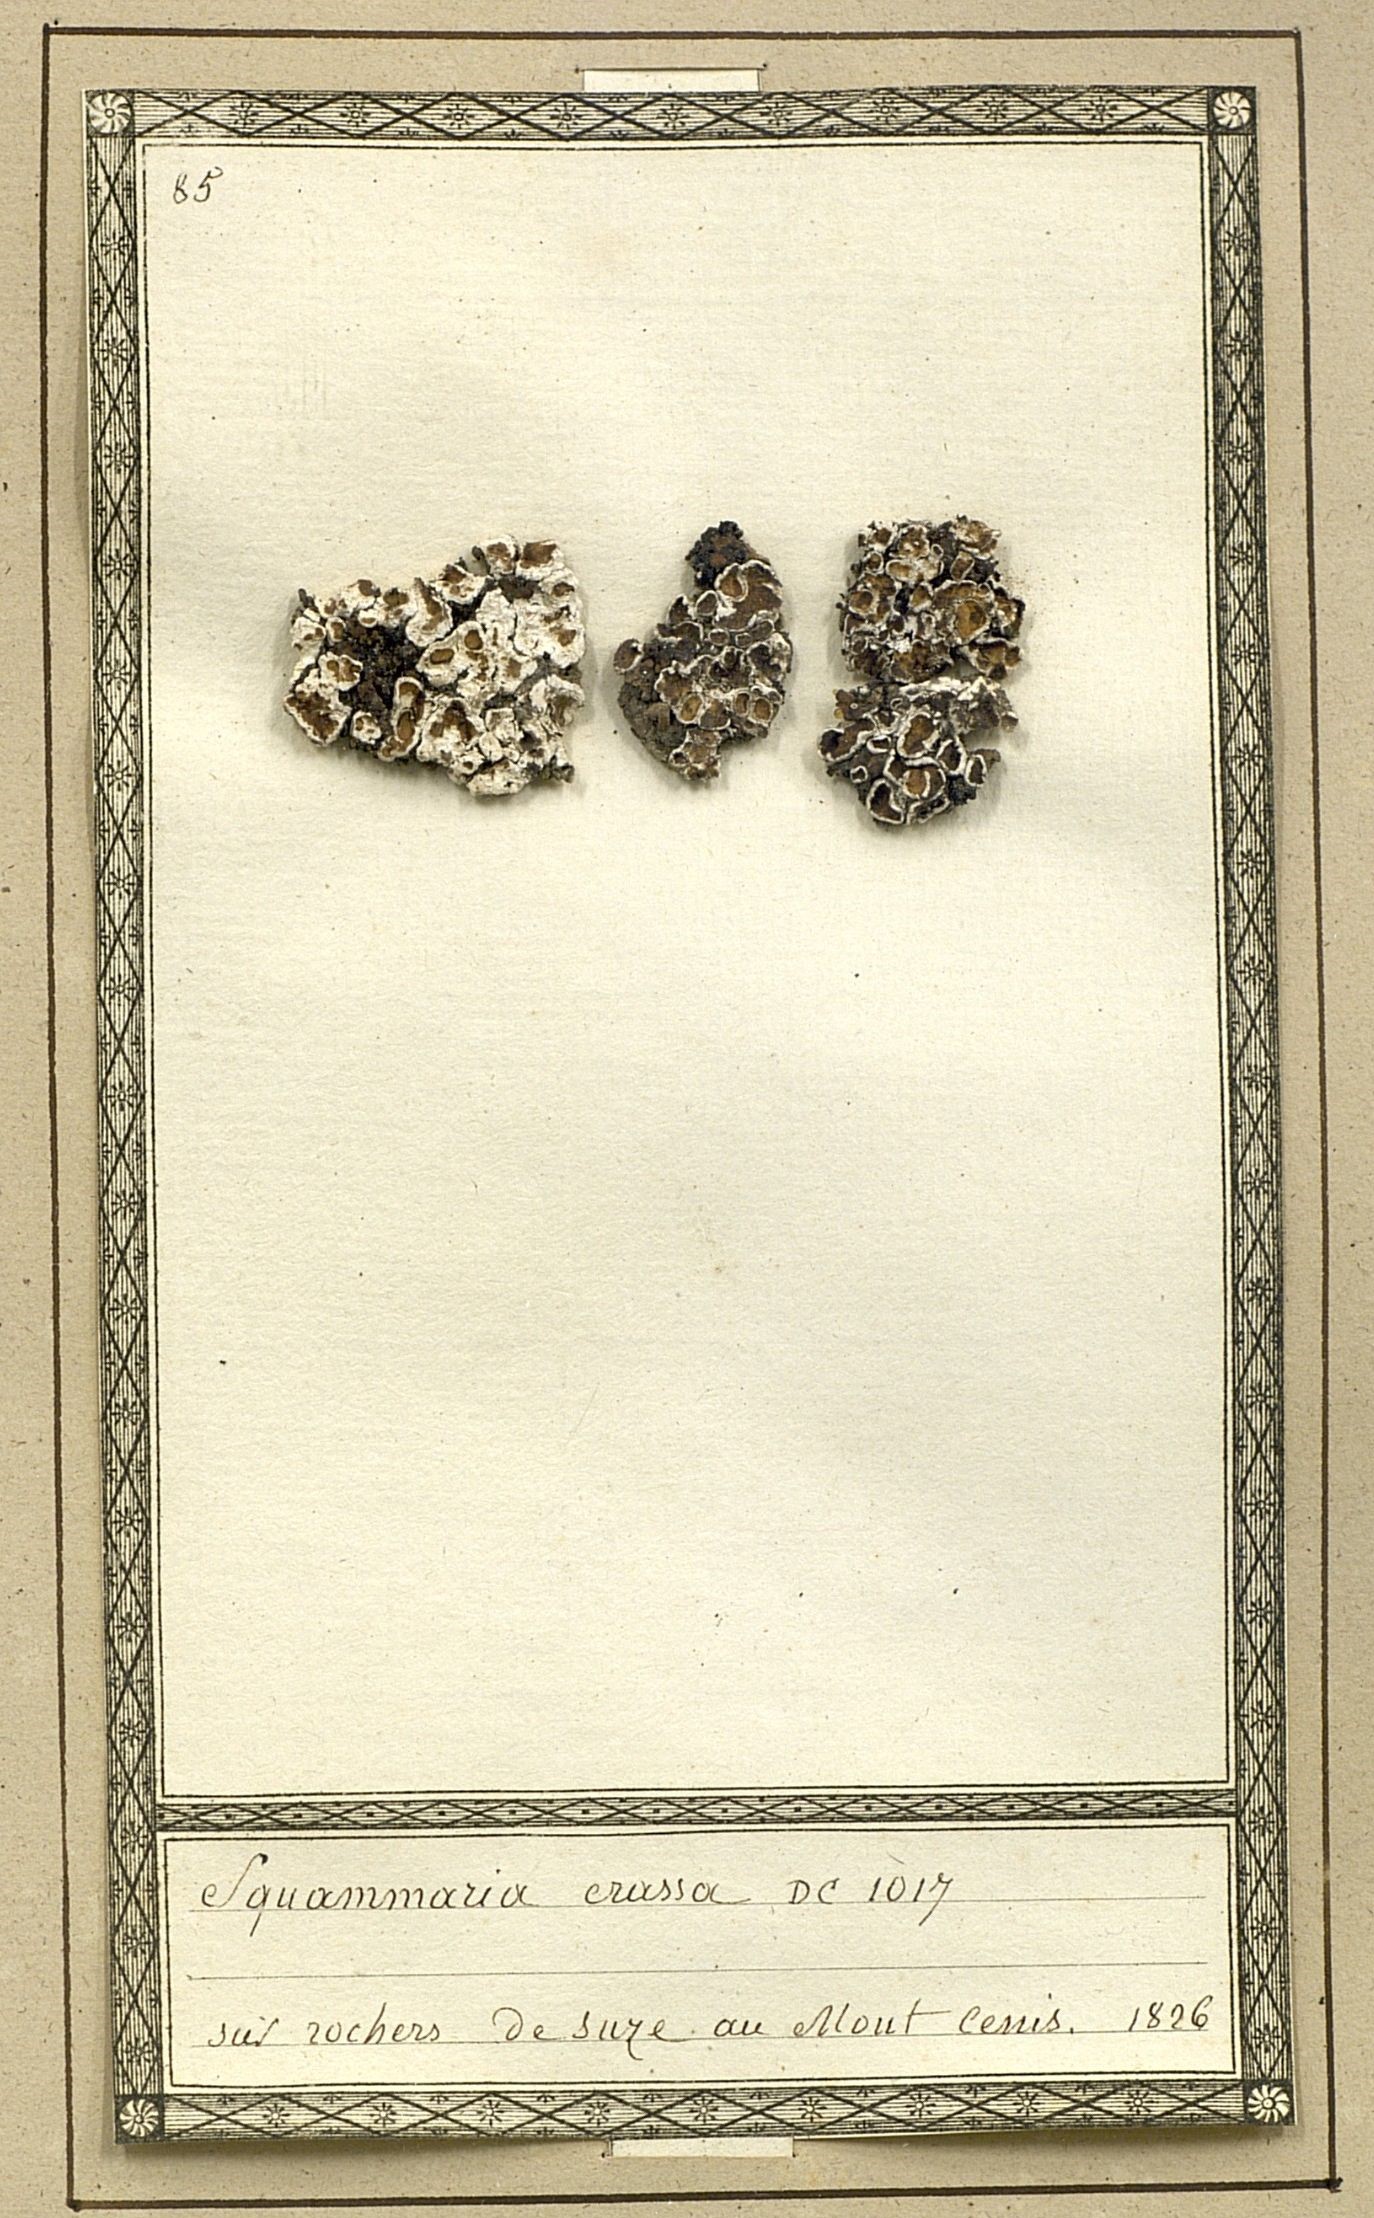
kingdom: Fungi
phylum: Ascomycota
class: Lecanoromycetes
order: Lecanorales
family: Stereocaulaceae
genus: Squamarina
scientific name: Squamarina
